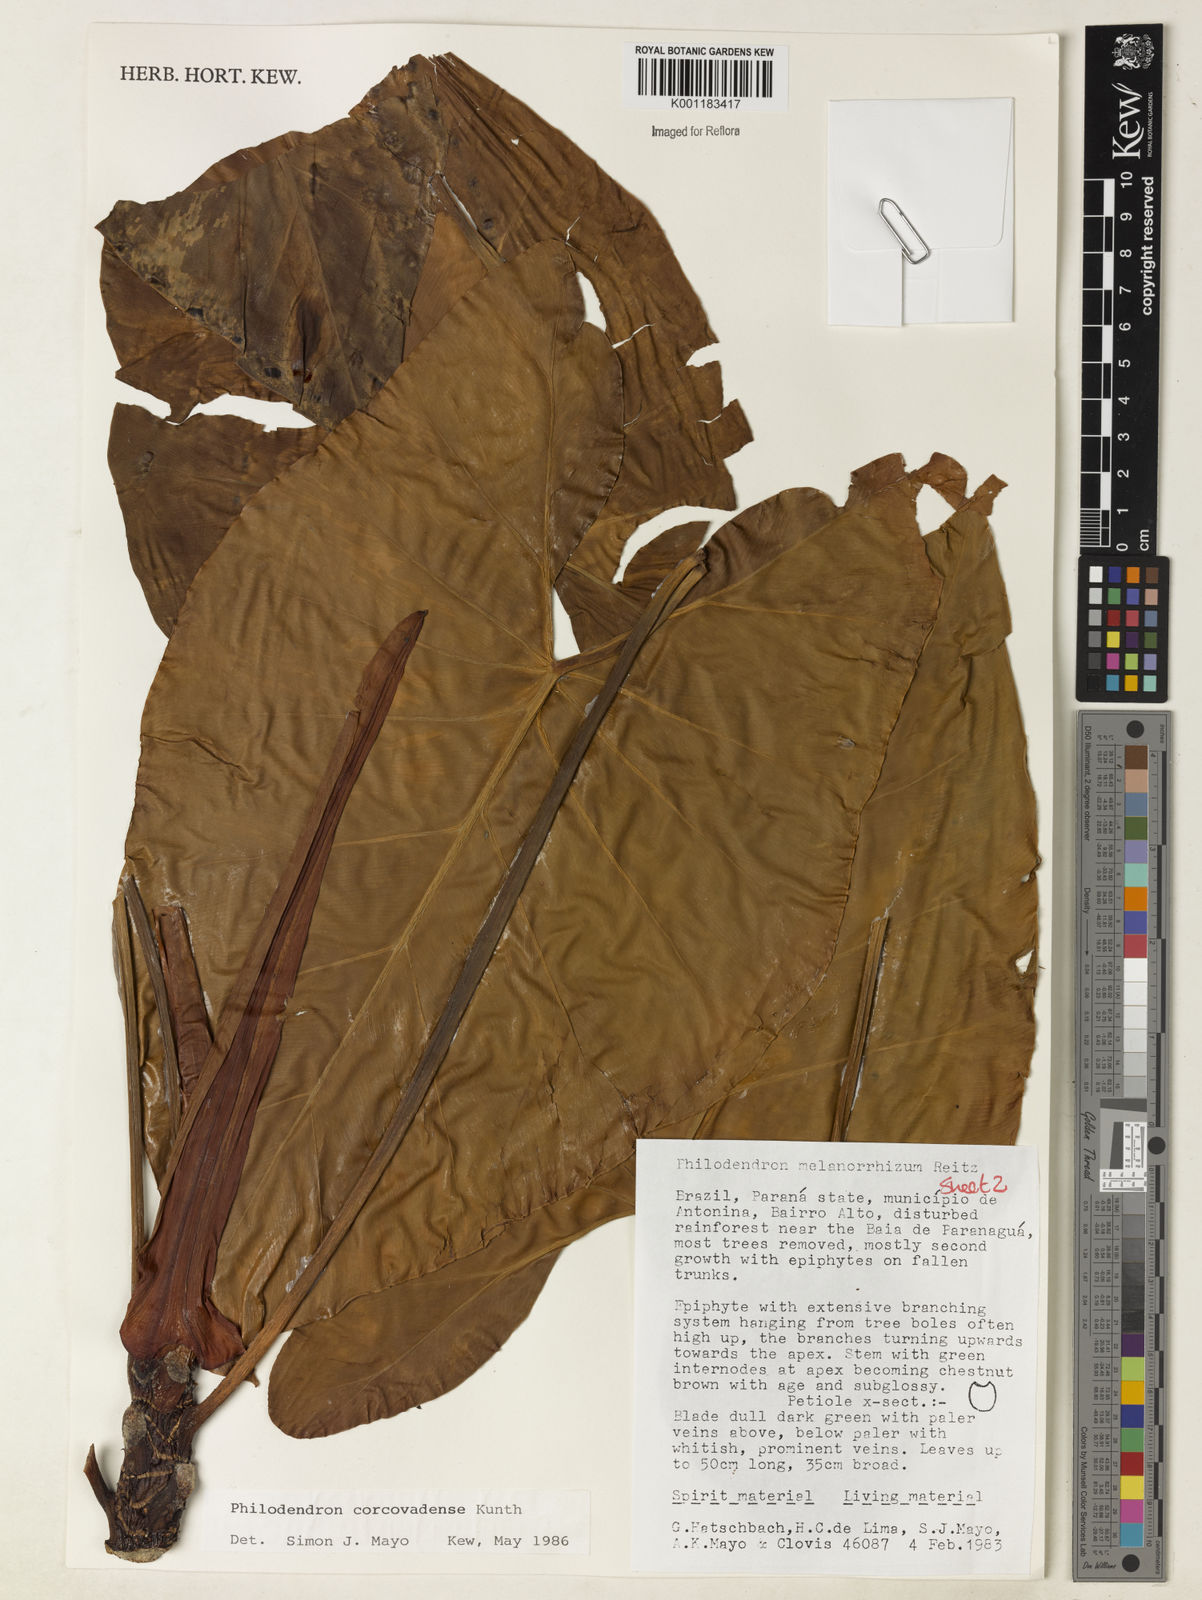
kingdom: Plantae
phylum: Tracheophyta
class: Liliopsida
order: Alismatales
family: Araceae
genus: Thaumatophyllum
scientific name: Thaumatophyllum corcovadense
